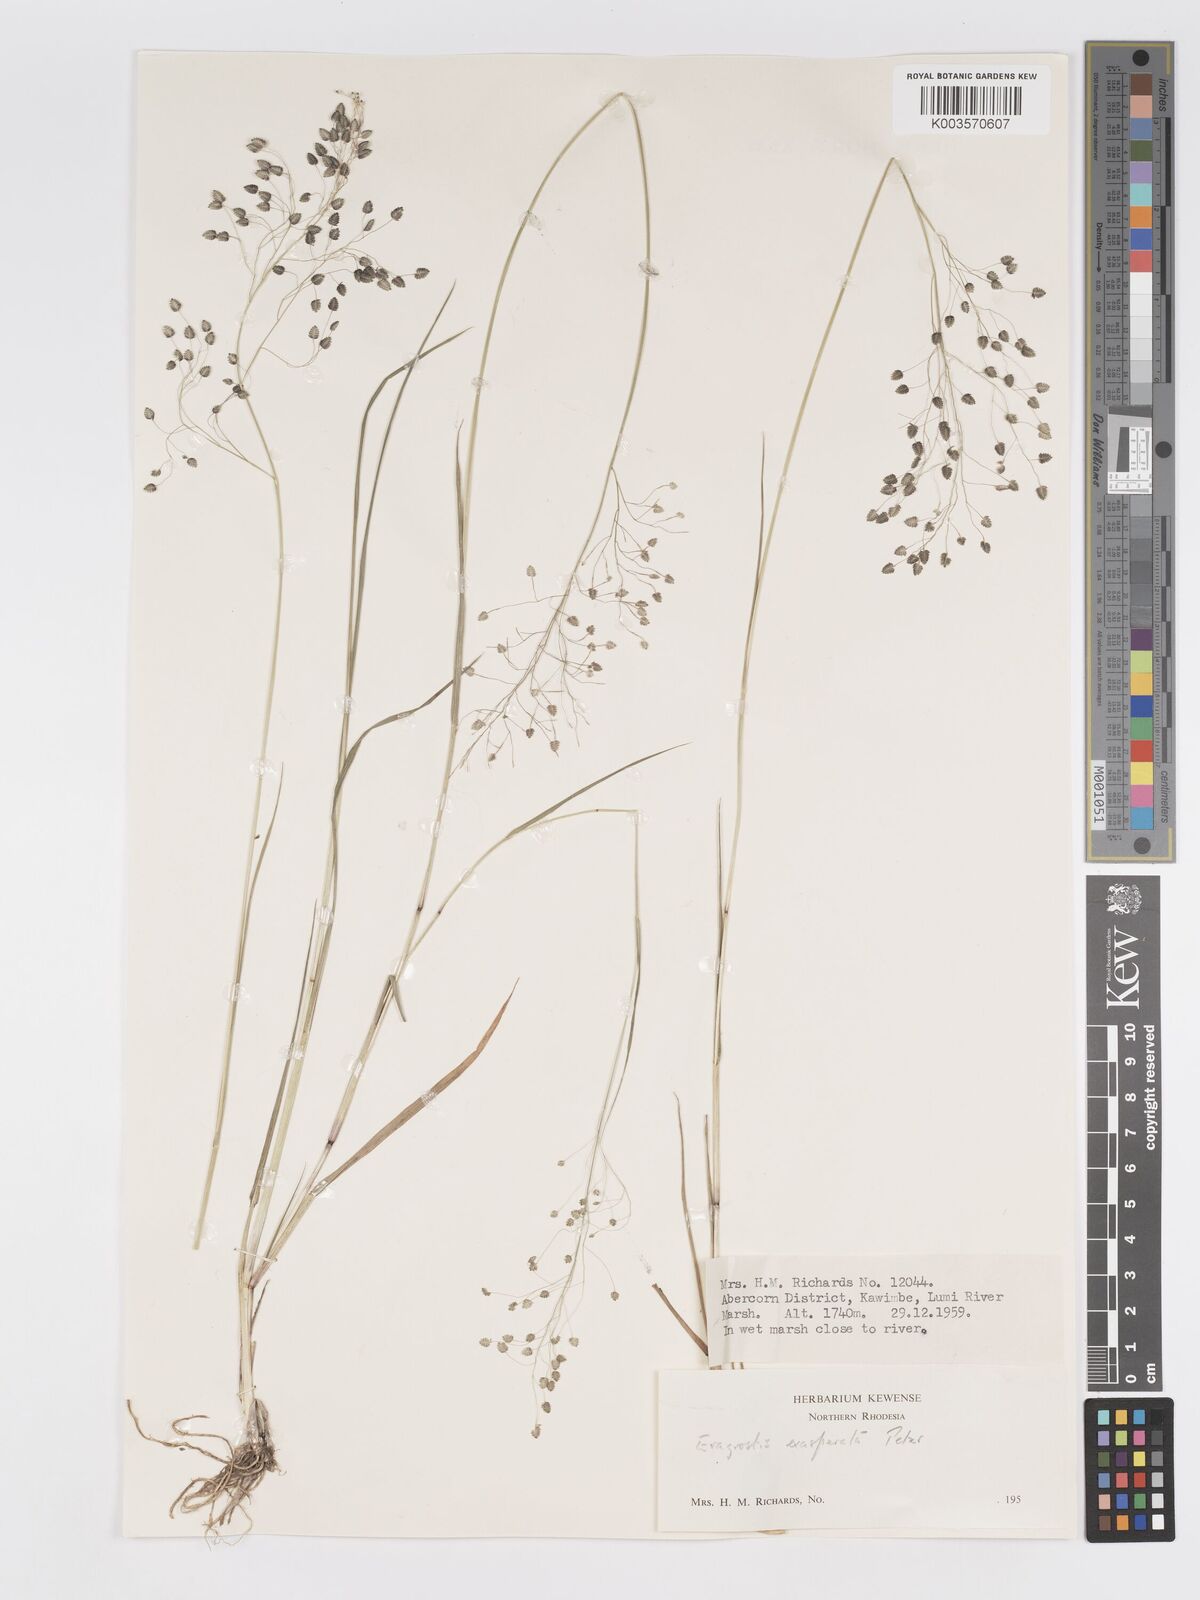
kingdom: Plantae
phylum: Tracheophyta
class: Liliopsida
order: Poales
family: Poaceae
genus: Eragrostis
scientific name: Eragrostis exasperata
